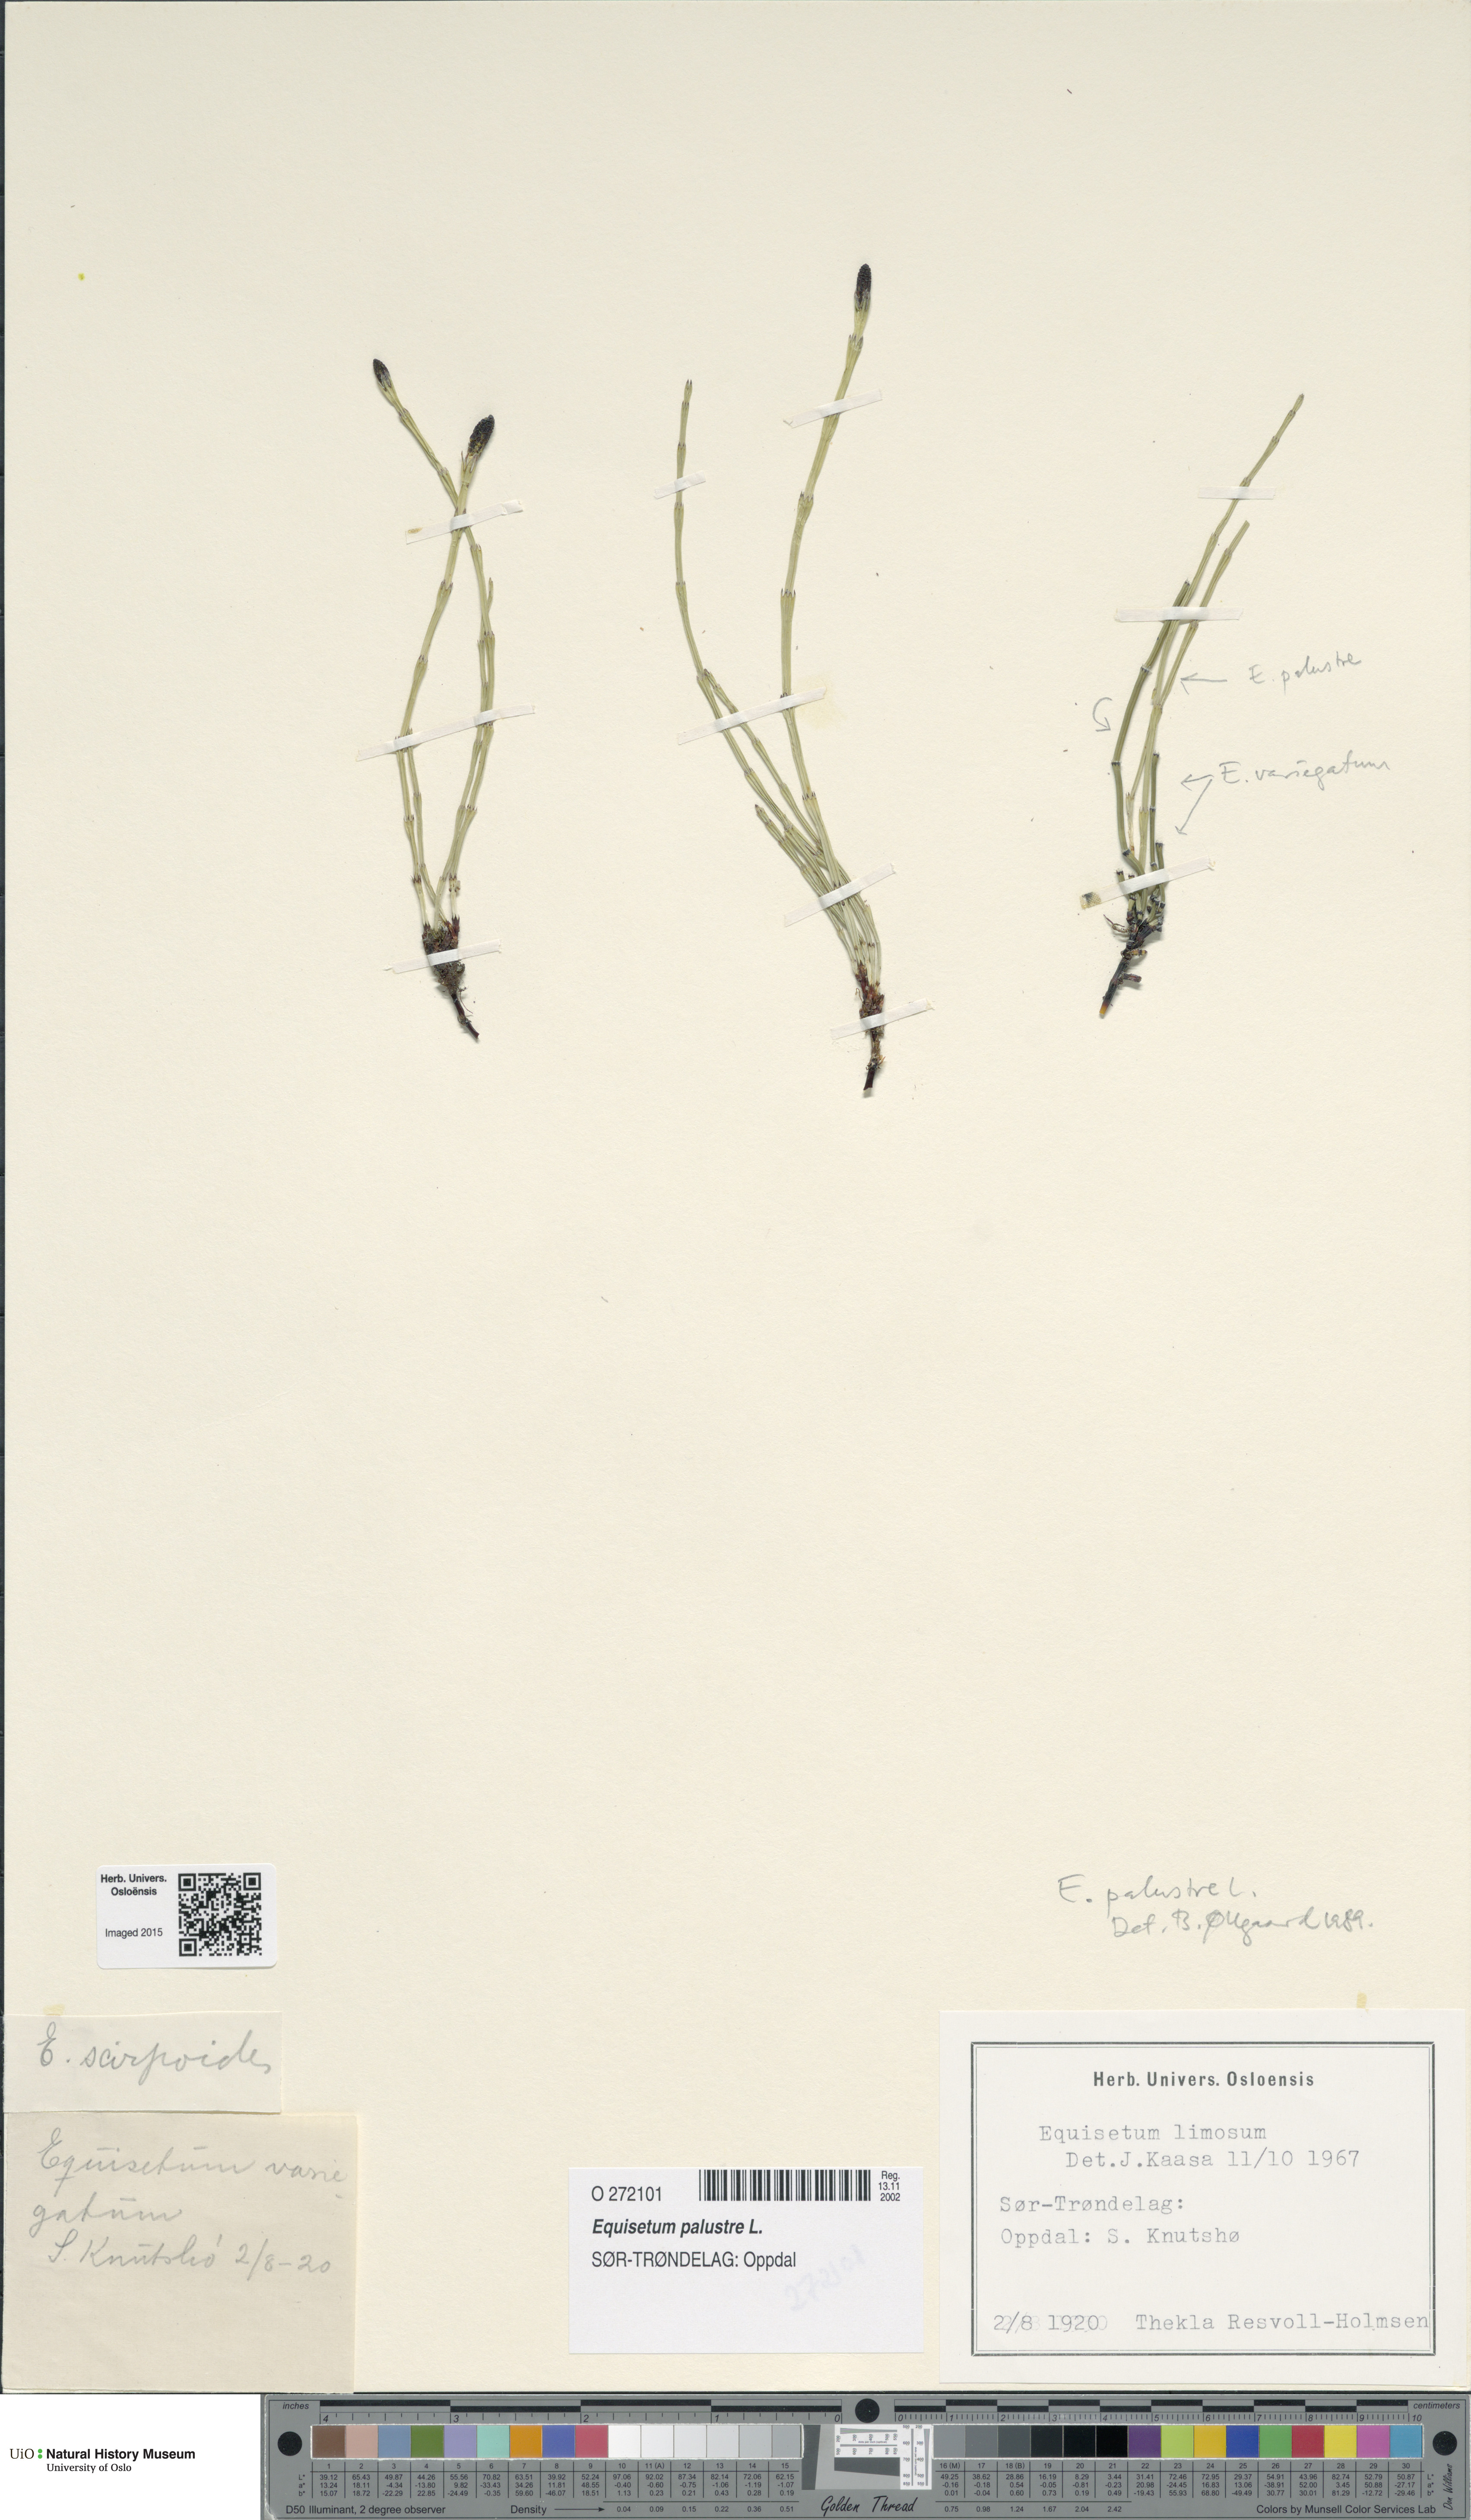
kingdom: Plantae
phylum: Tracheophyta
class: Polypodiopsida
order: Equisetales
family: Equisetaceae
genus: Equisetum
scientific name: Equisetum palustre
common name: Marsh horsetail
